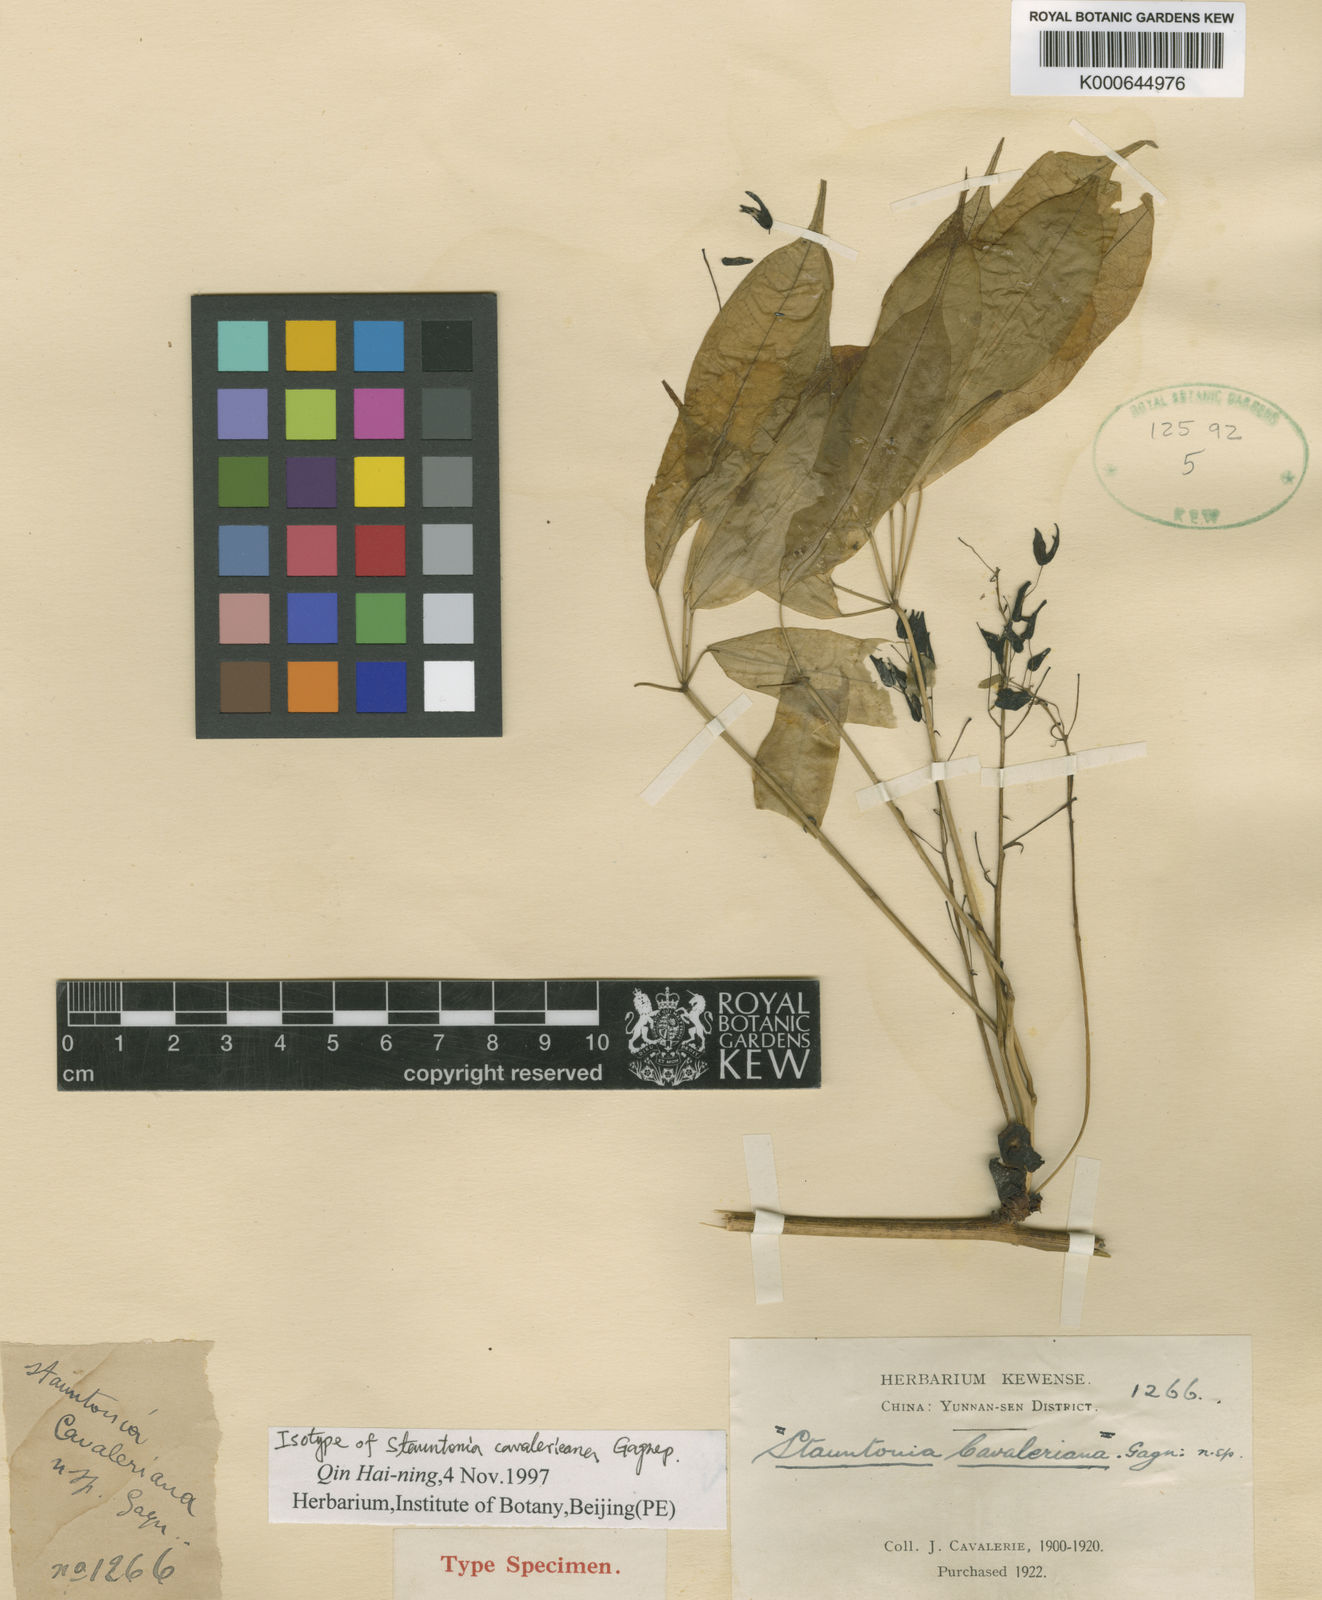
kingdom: Plantae
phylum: Tracheophyta
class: Magnoliopsida
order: Ranunculales
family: Lardizabalaceae
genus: Stauntonia
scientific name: Stauntonia cavalerieana
